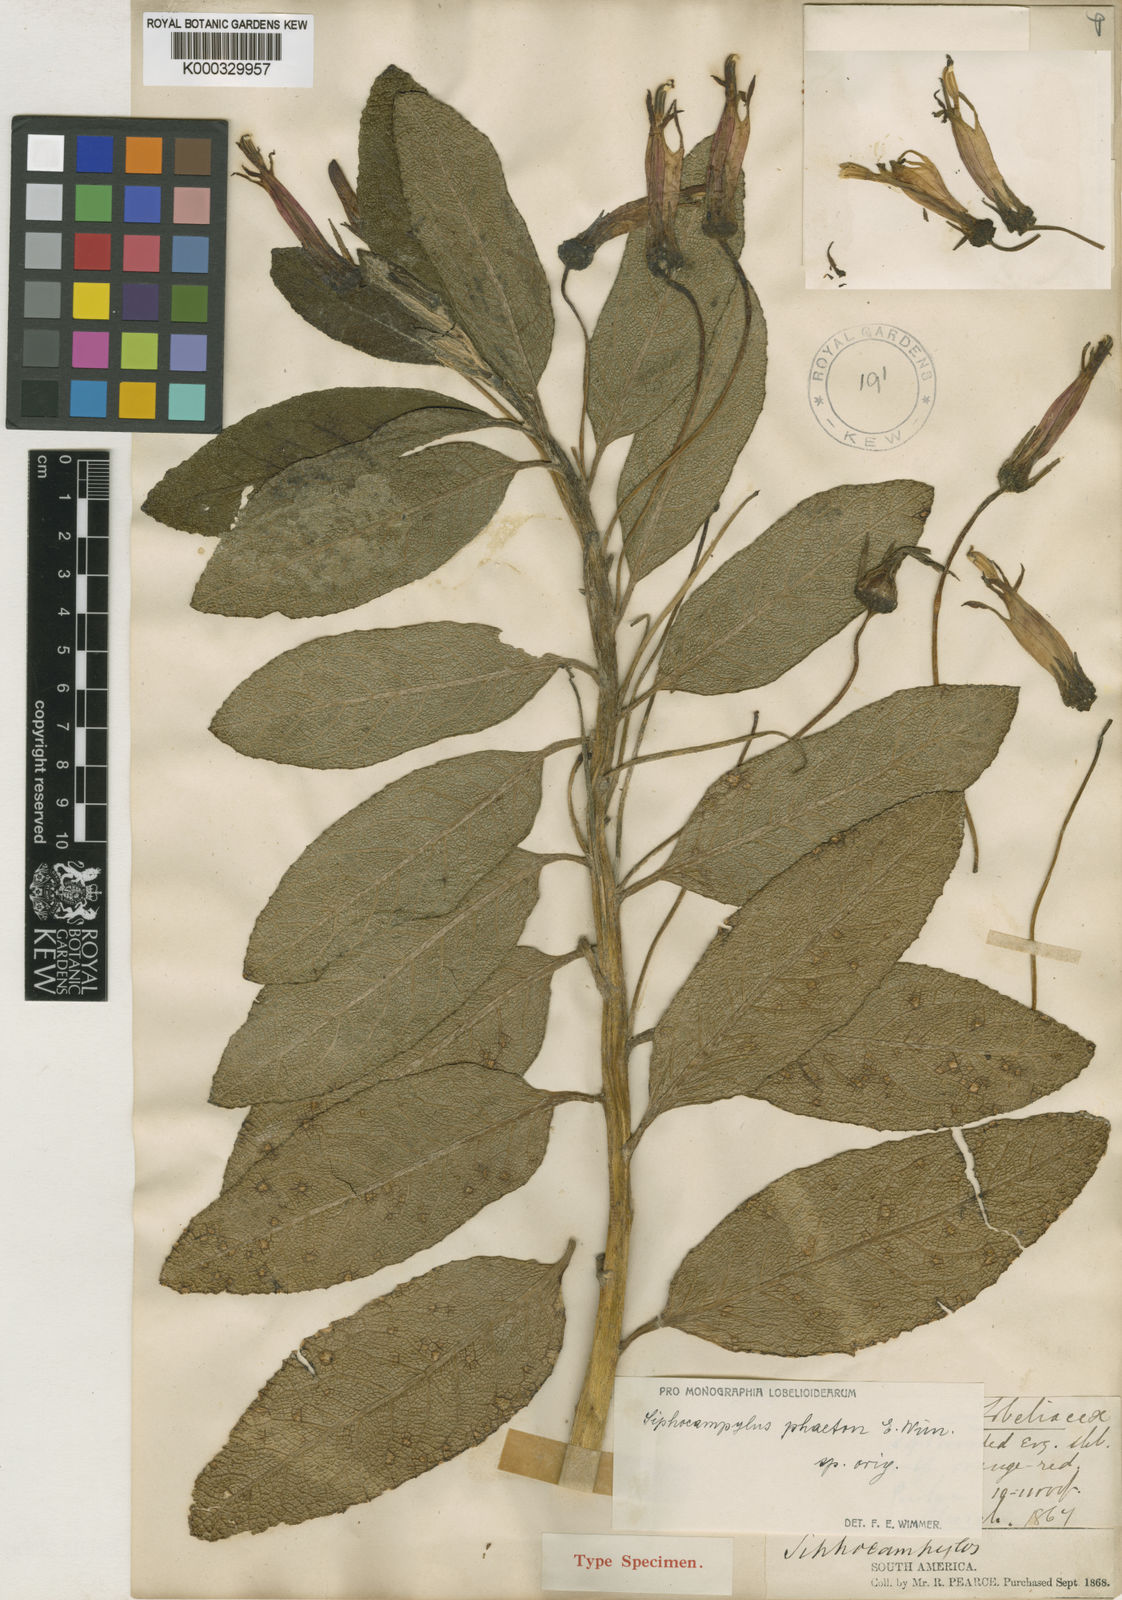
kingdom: Plantae
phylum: Tracheophyta
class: Magnoliopsida
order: Asterales
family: Campanulaceae
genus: Siphocampylus
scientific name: Siphocampylus phaeton
